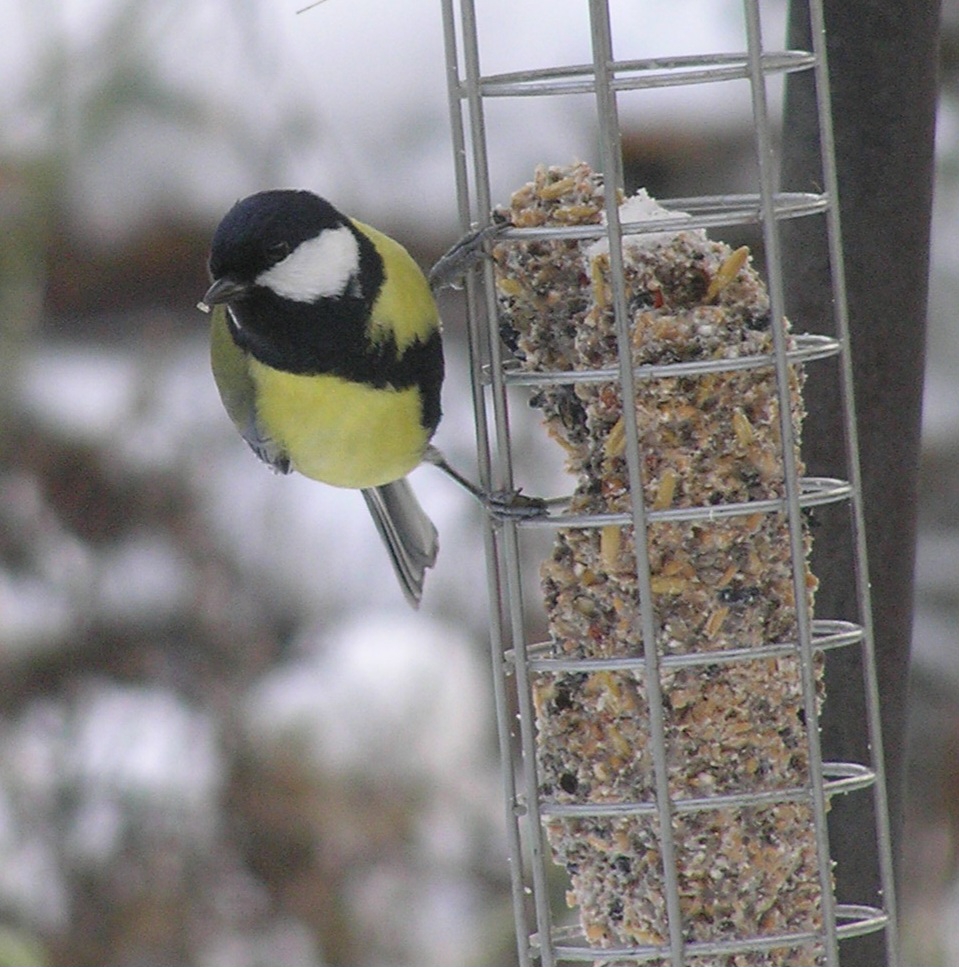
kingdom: Animalia
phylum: Chordata
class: Aves
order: Passeriformes
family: Paridae
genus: Parus
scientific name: Parus major
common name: Musvit
